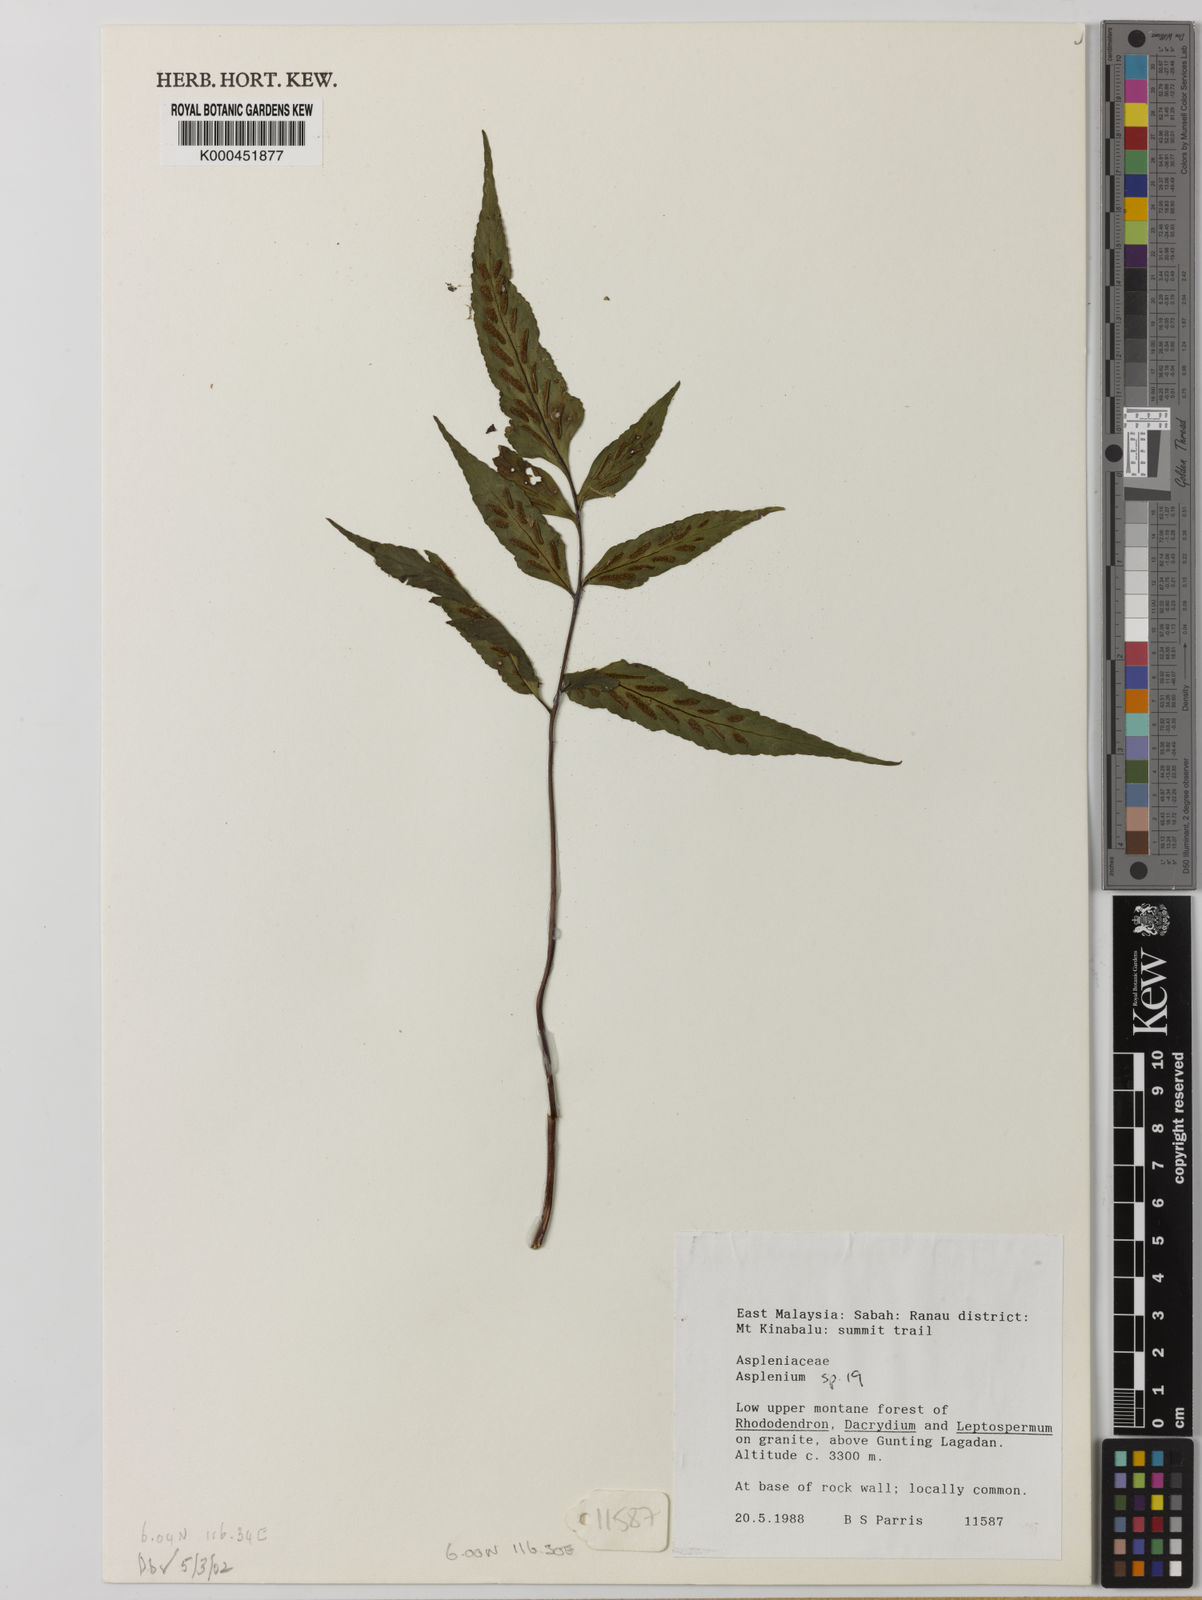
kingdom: Plantae
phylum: Tracheophyta
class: Polypodiopsida
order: Polypodiales
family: Aspleniaceae
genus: Asplenium
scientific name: Asplenium
